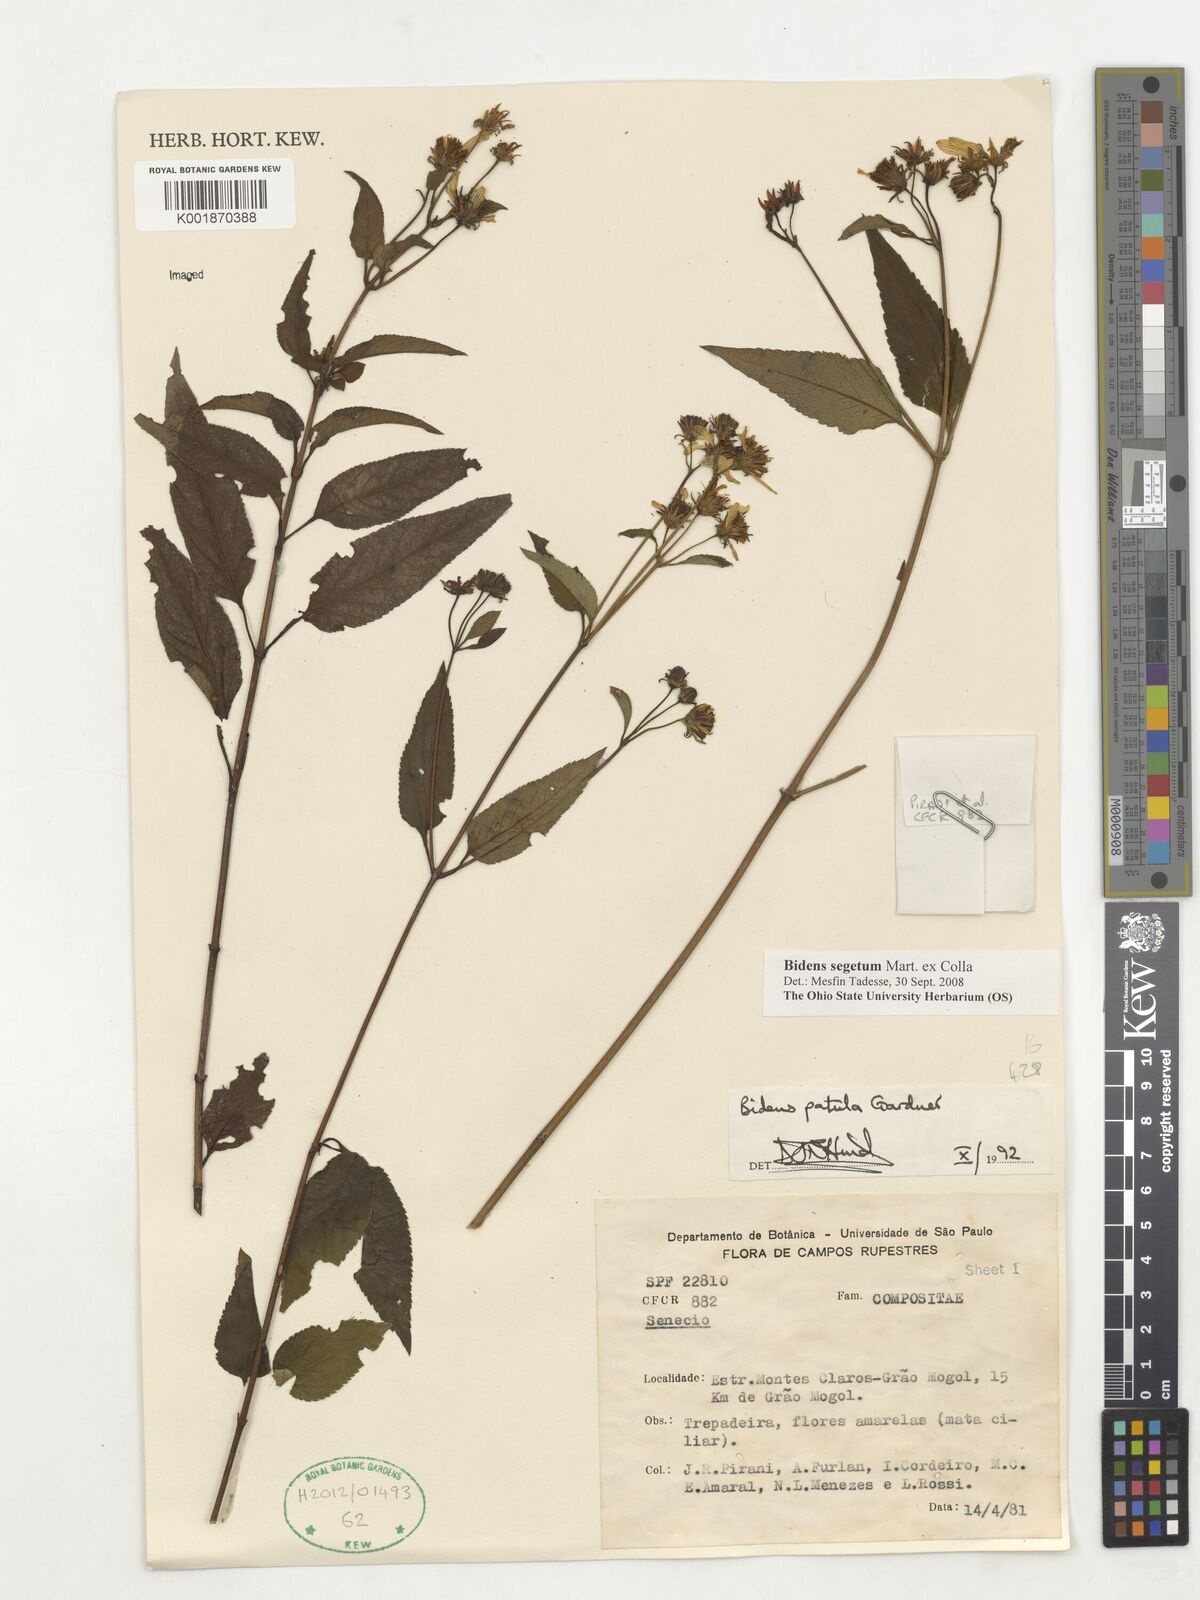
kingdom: Plantae
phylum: Tracheophyta
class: Magnoliopsida
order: Asterales
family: Asteraceae
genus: Bidens
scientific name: Bidens segetum
